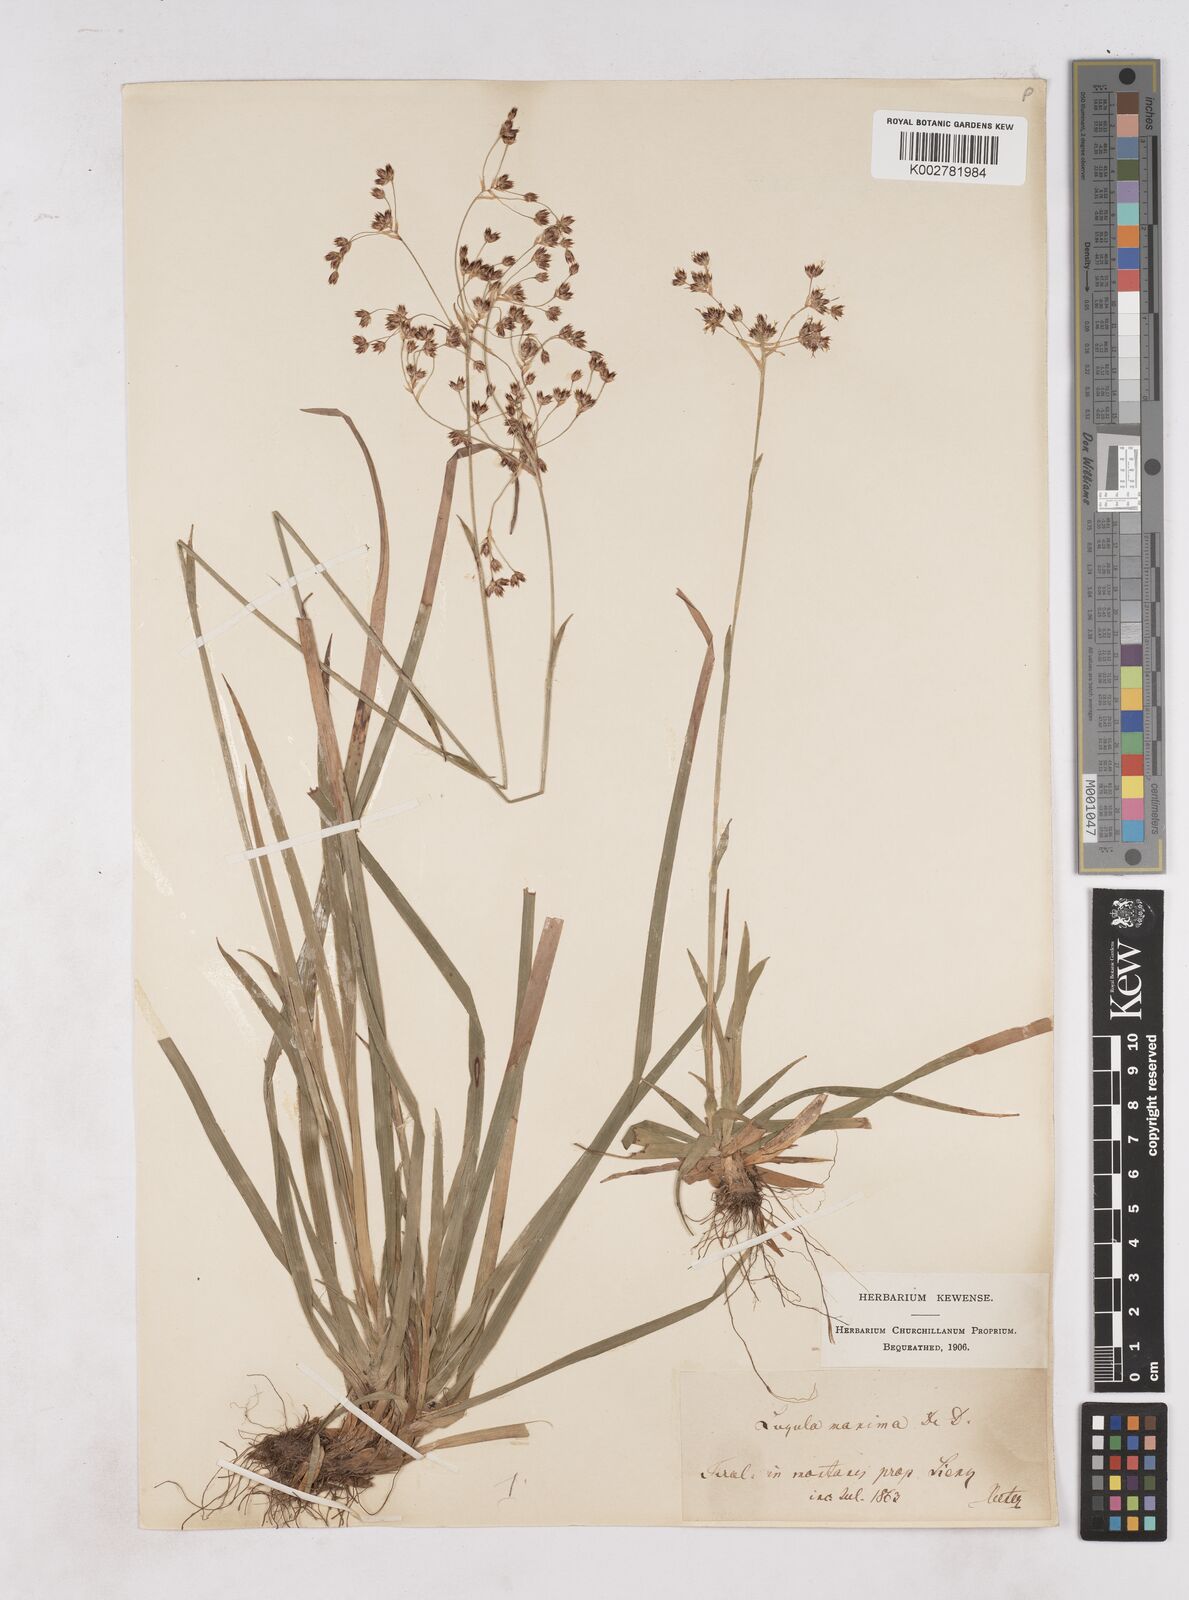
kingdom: Plantae
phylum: Tracheophyta
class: Liliopsida
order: Poales
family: Juncaceae
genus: Luzula
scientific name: Luzula sylvatica
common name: Great wood-rush
